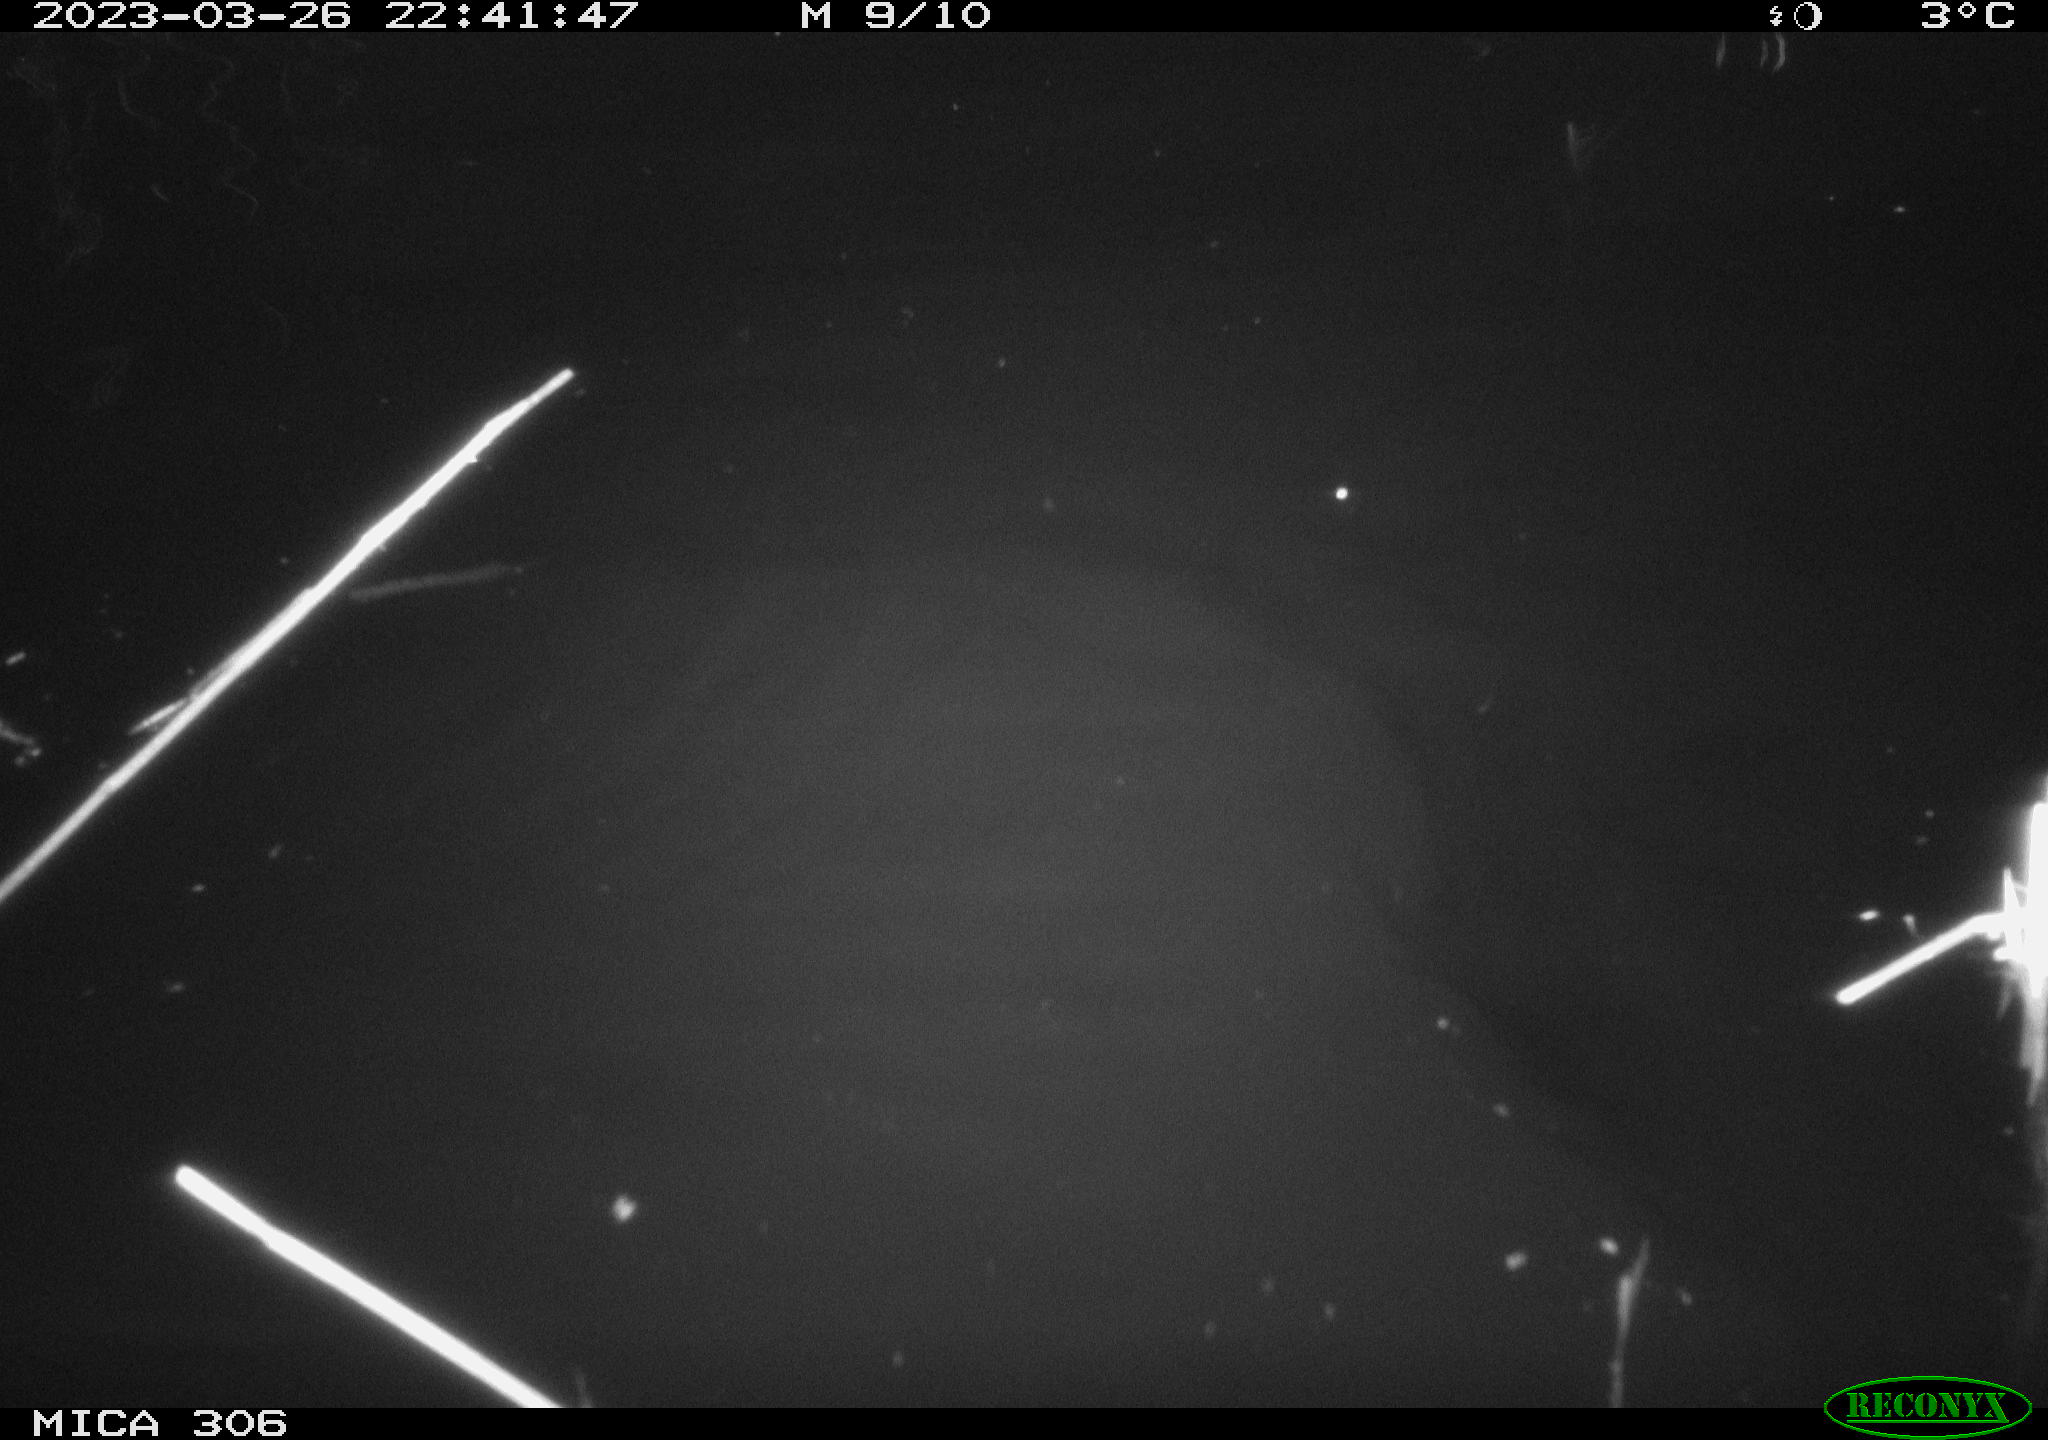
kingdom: Animalia
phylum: Chordata
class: Mammalia
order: Rodentia
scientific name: Rodentia
